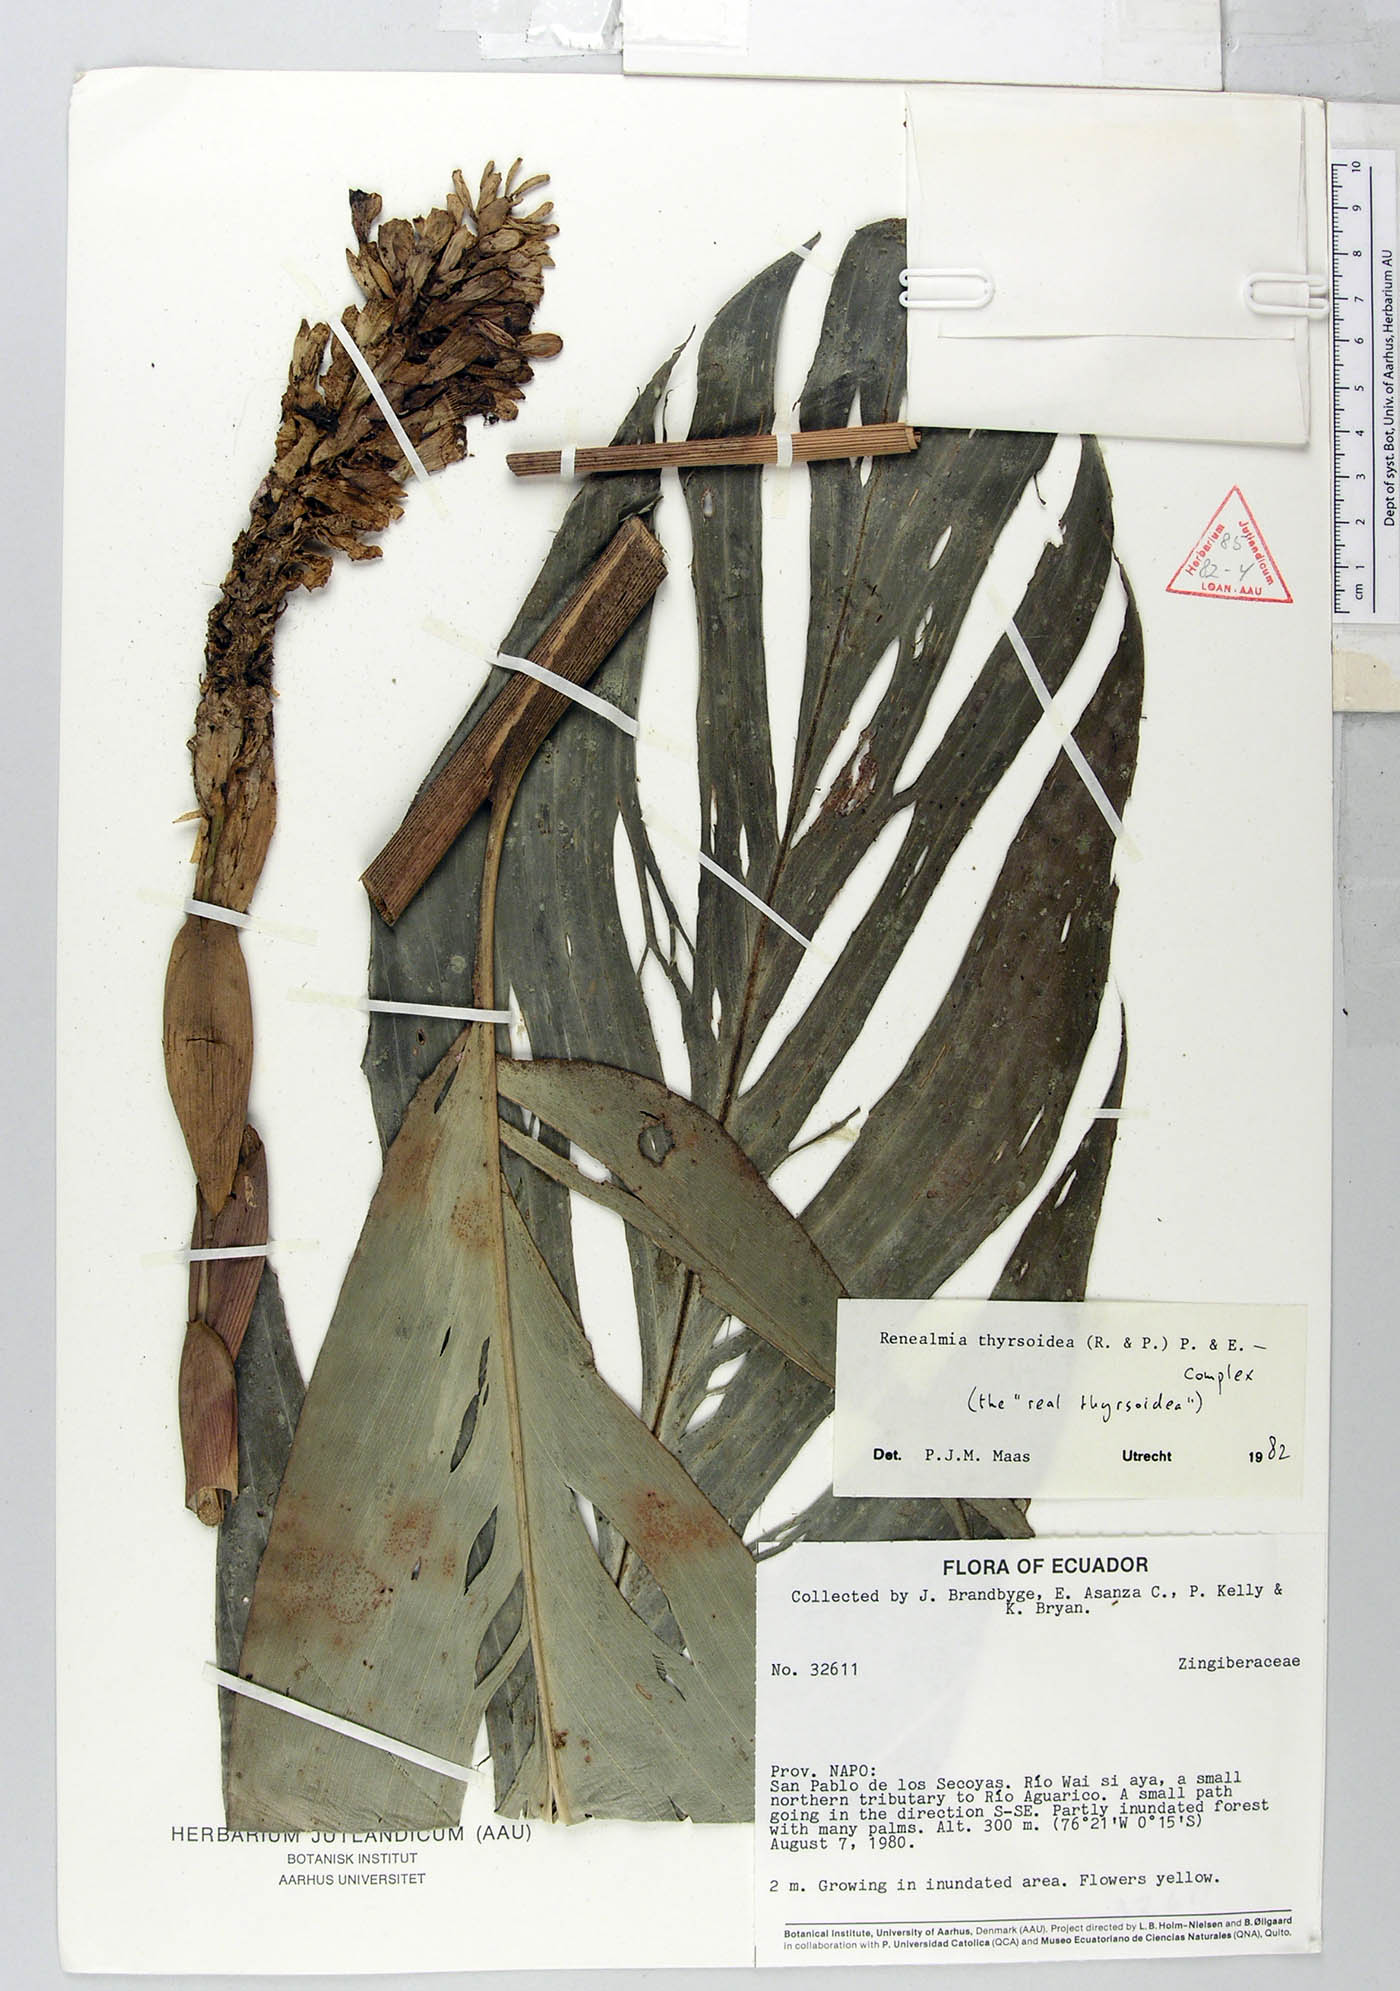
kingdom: Plantae
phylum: Tracheophyta
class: Liliopsida
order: Zingiberales
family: Zingiberaceae
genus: Renealmia
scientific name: Renealmia thyrsoidea
